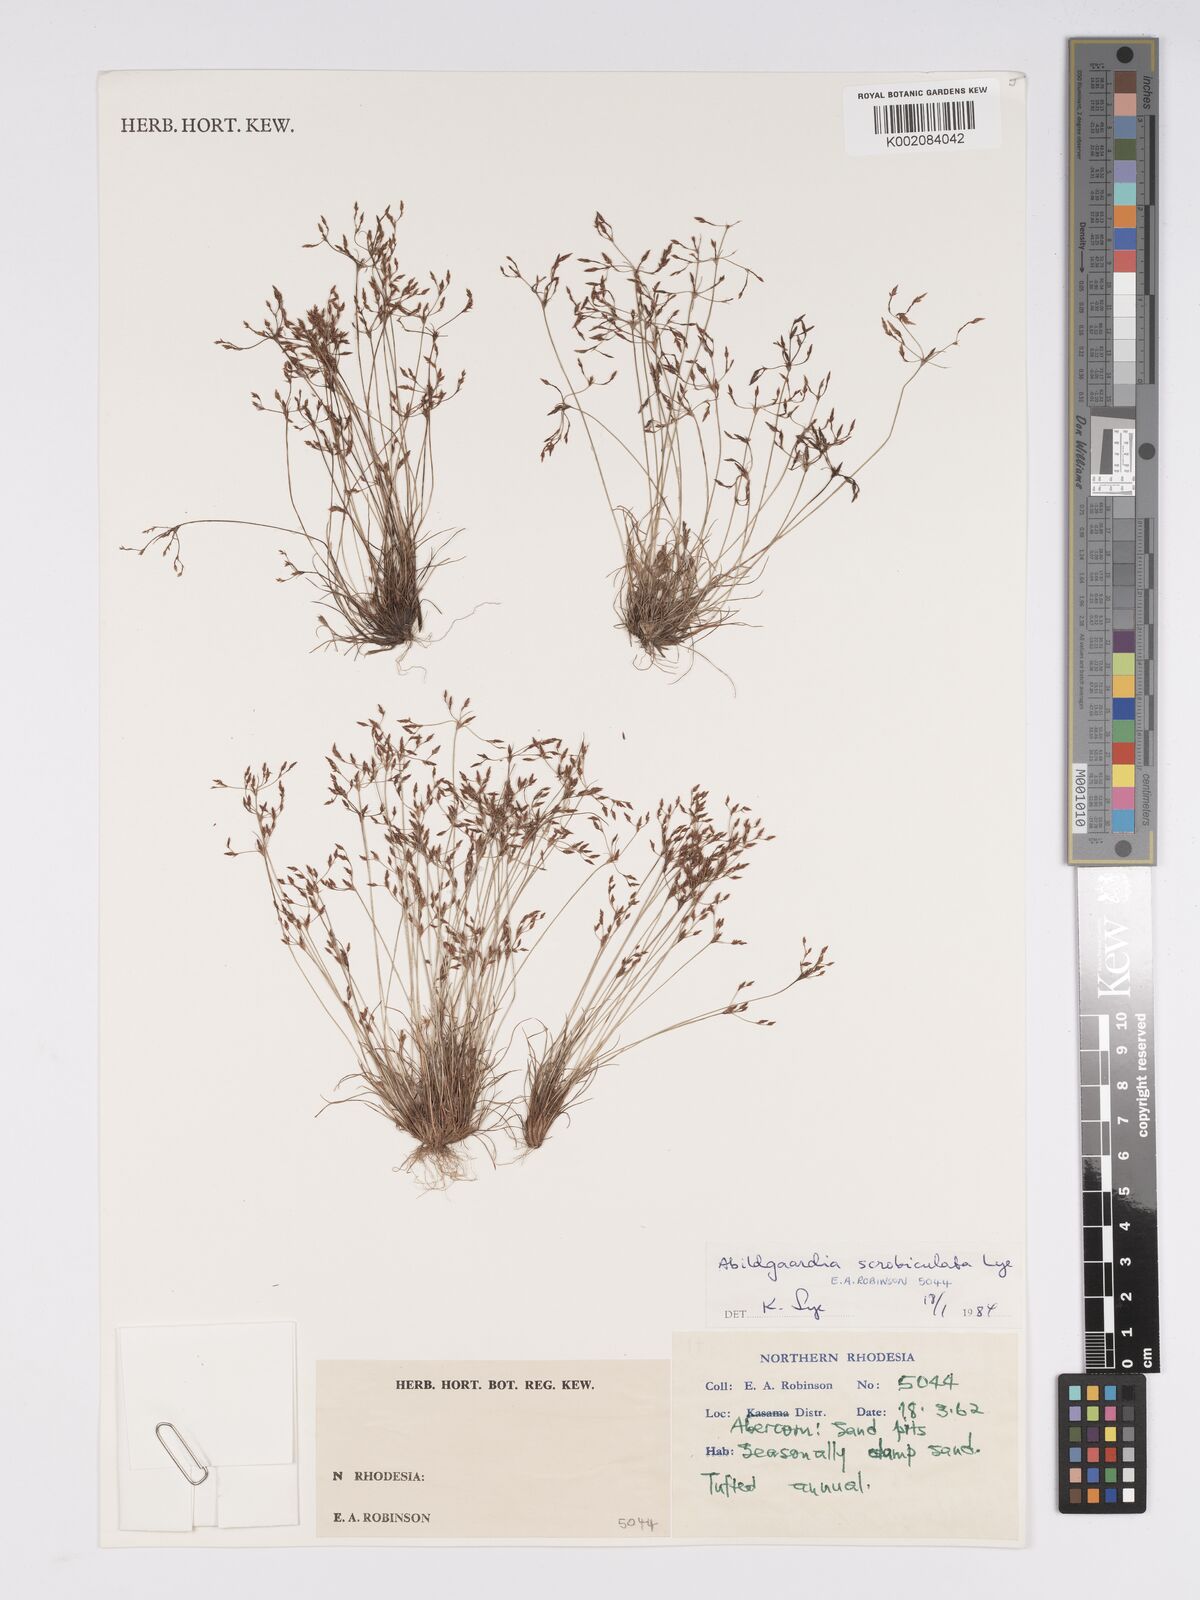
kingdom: Plantae
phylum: Tracheophyta
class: Liliopsida
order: Poales
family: Cyperaceae
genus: Bulbostylis
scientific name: Bulbostylis scrobiculata
